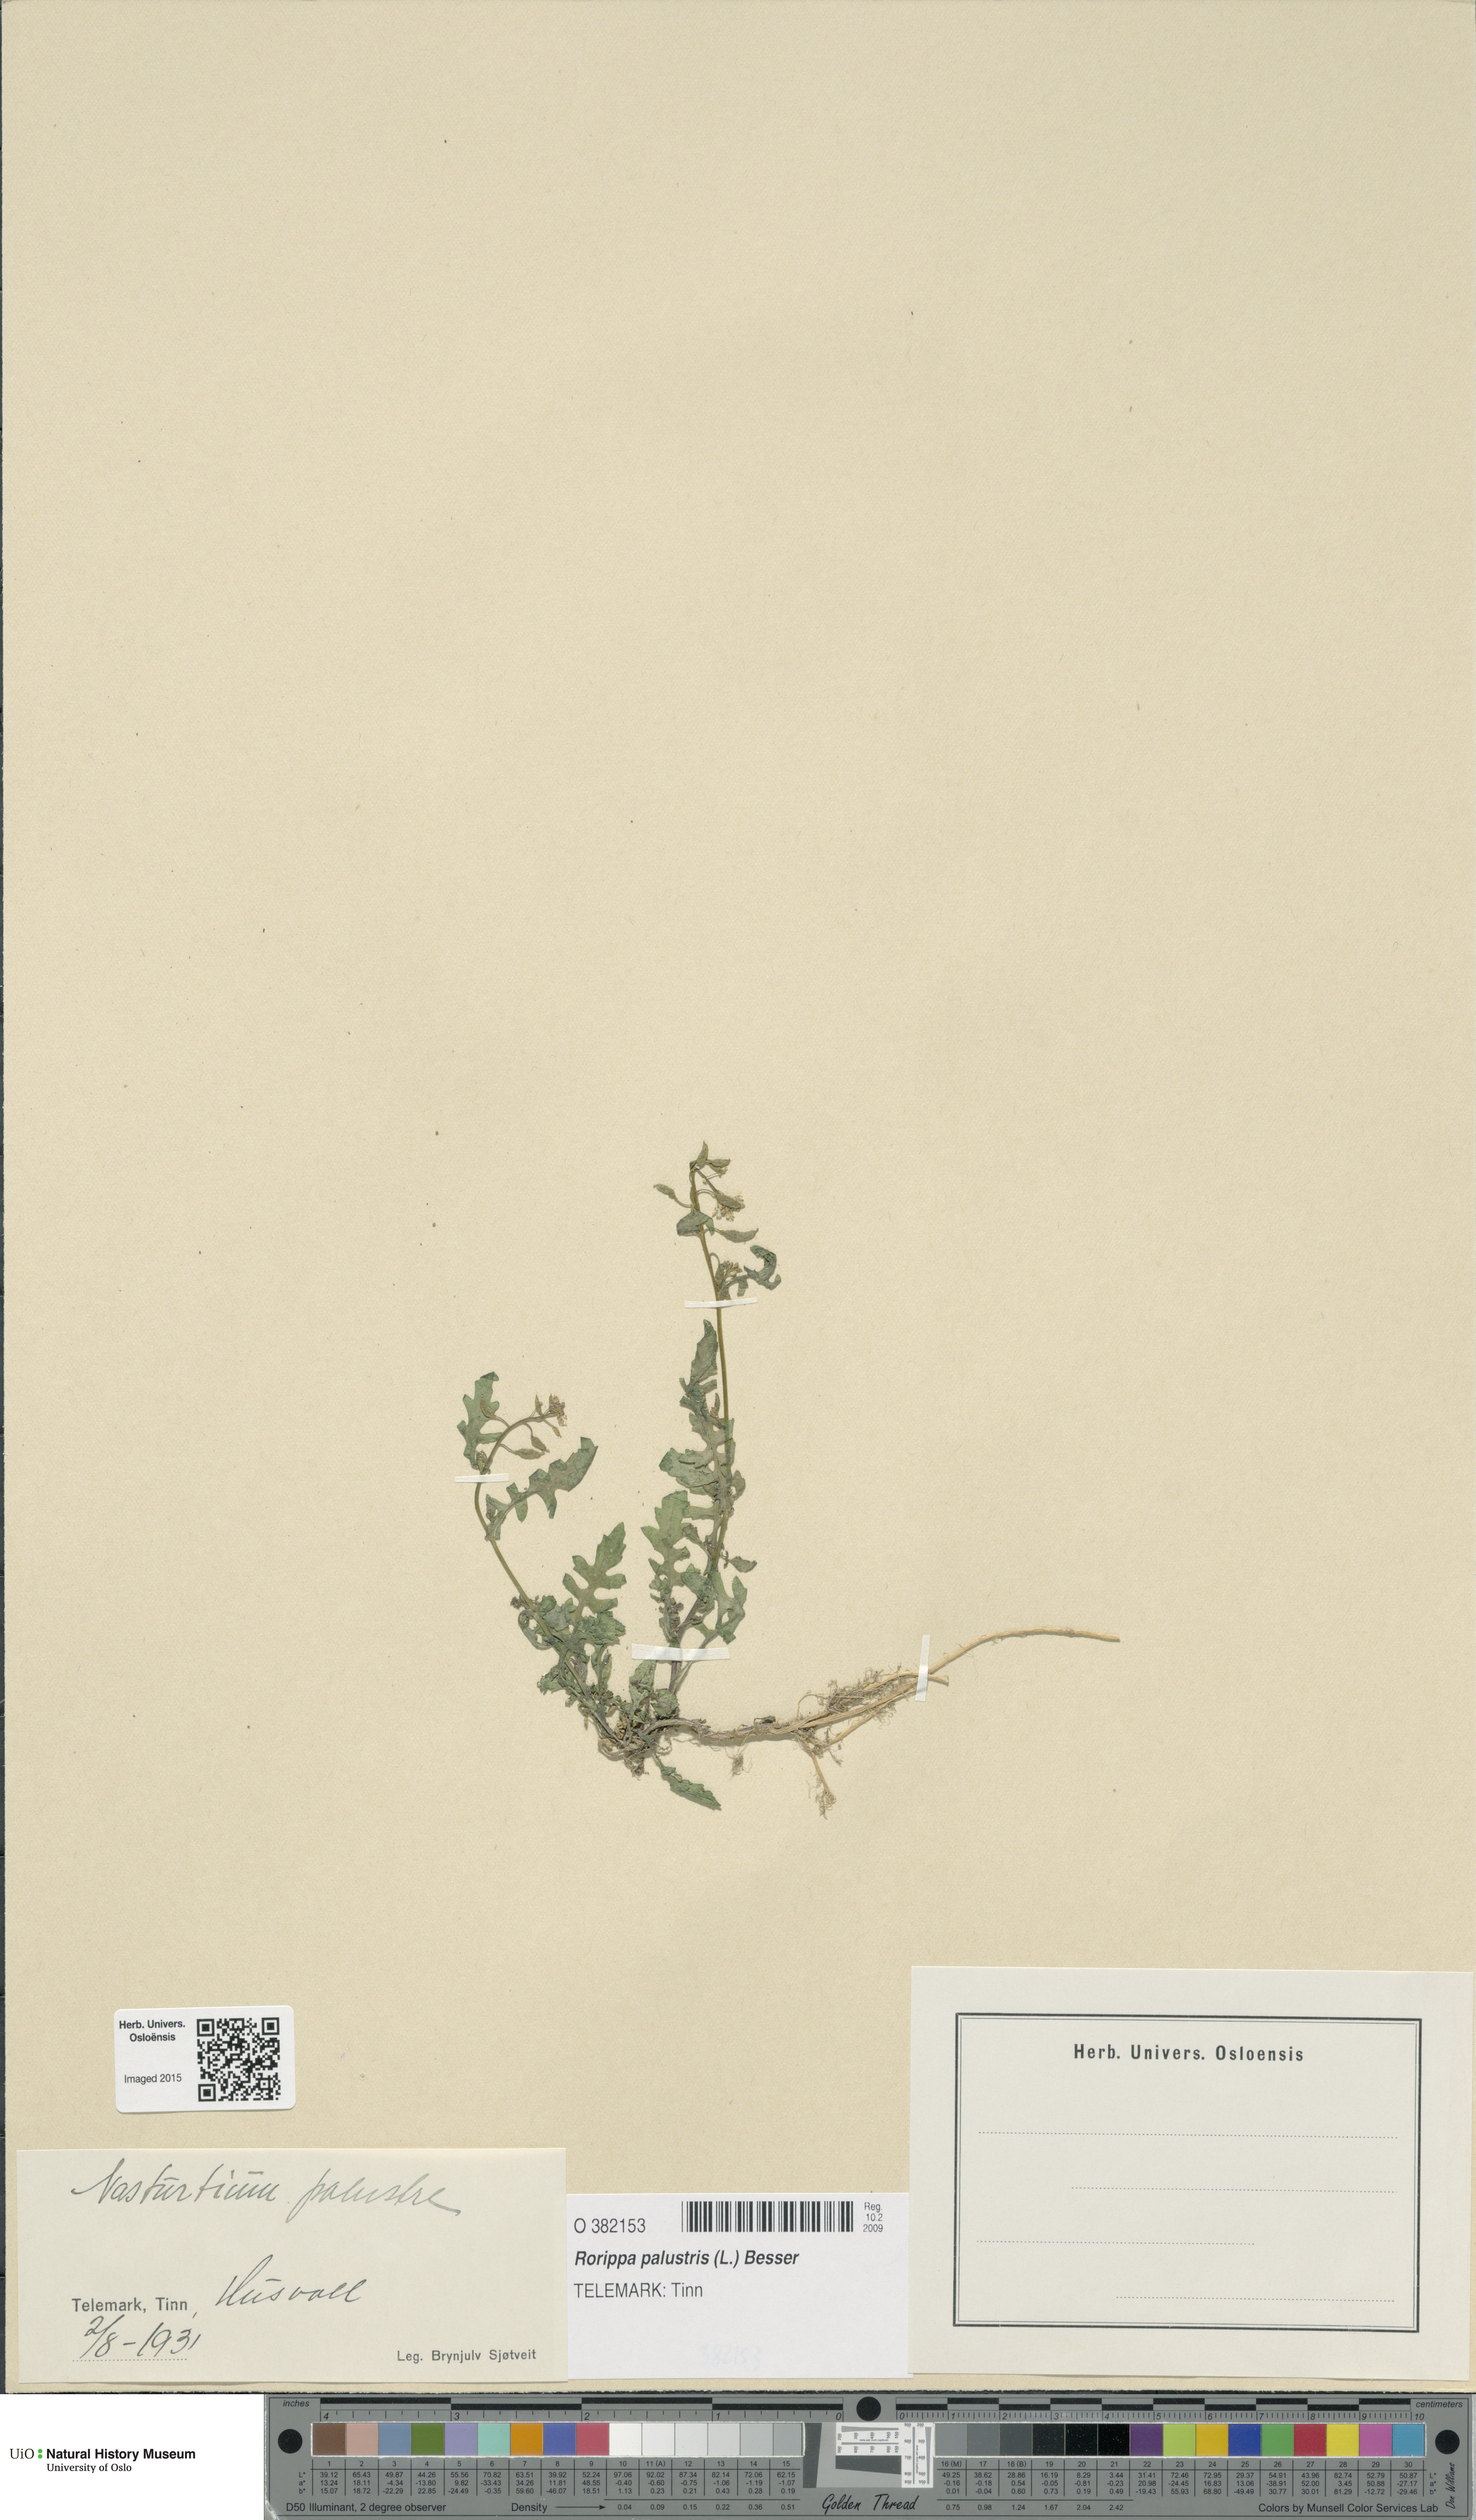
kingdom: Plantae
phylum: Tracheophyta
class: Magnoliopsida
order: Brassicales
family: Brassicaceae
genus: Rorippa
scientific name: Rorippa palustris
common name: Marsh yellow-cress
